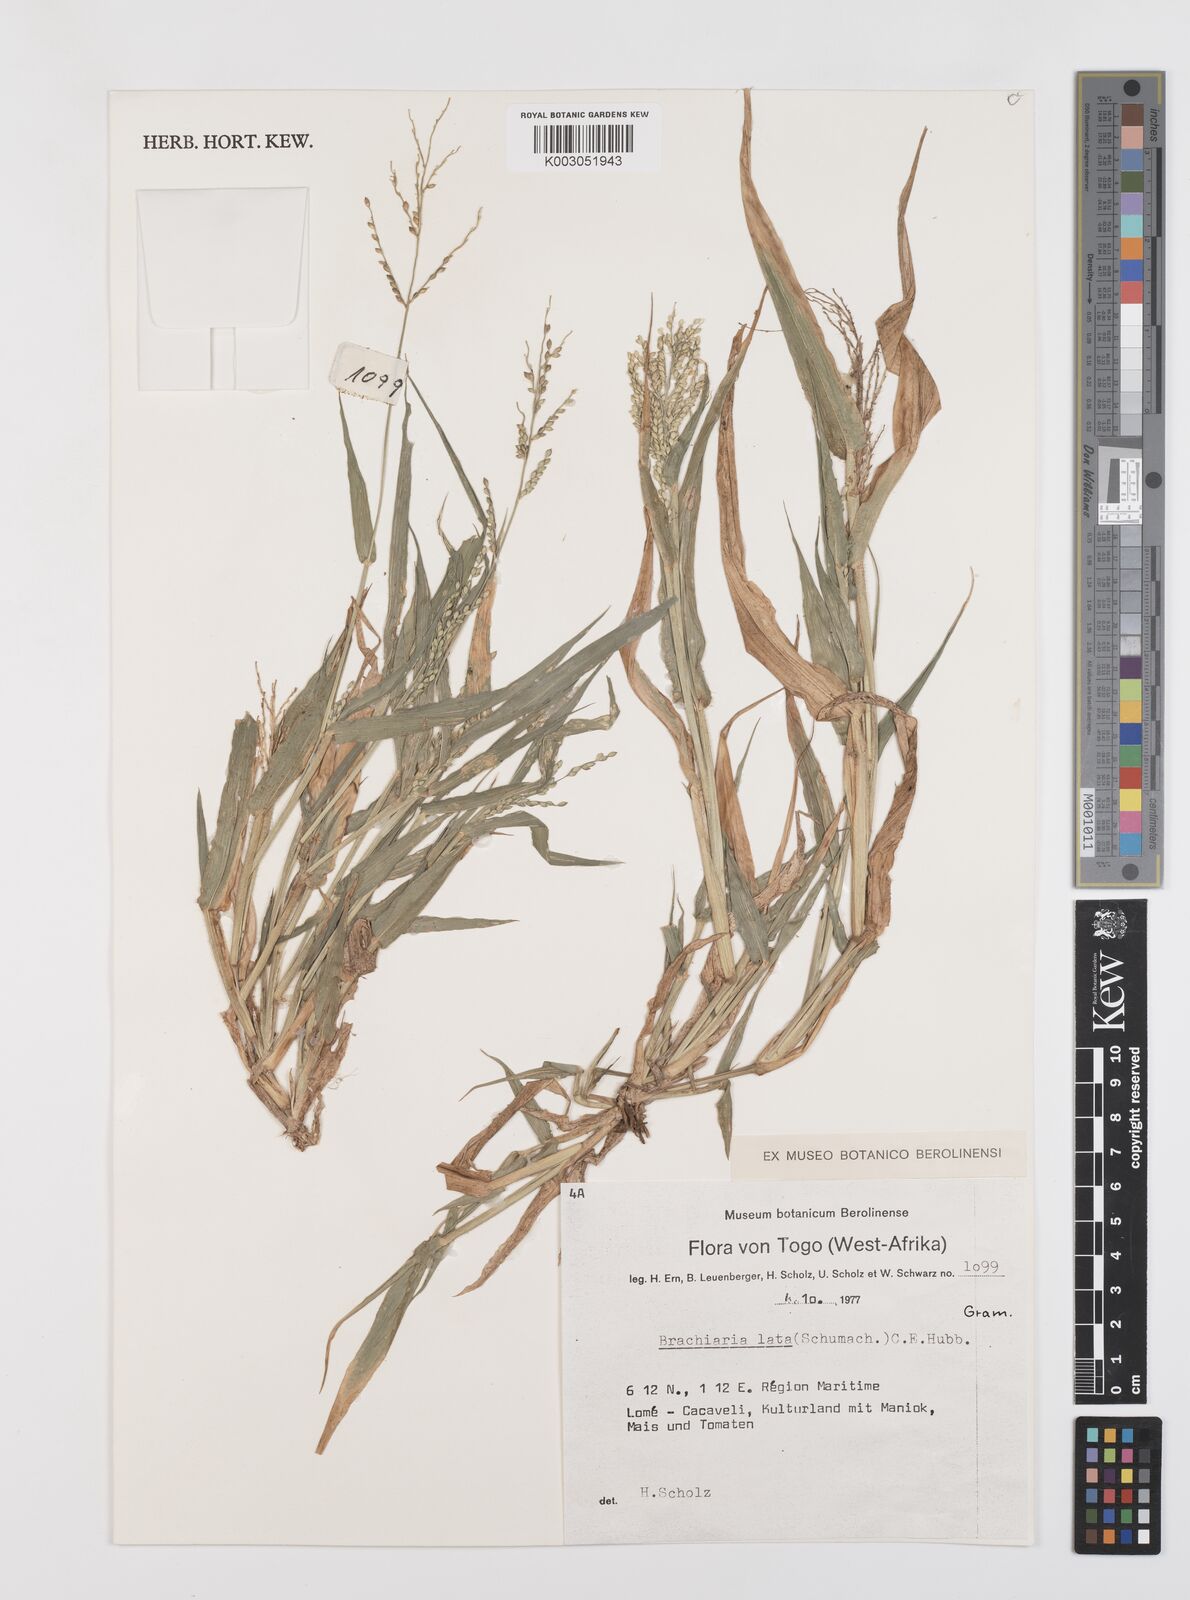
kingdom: Plantae
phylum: Tracheophyta
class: Liliopsida
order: Poales
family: Poaceae
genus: Urochloa
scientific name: Urochloa lata
